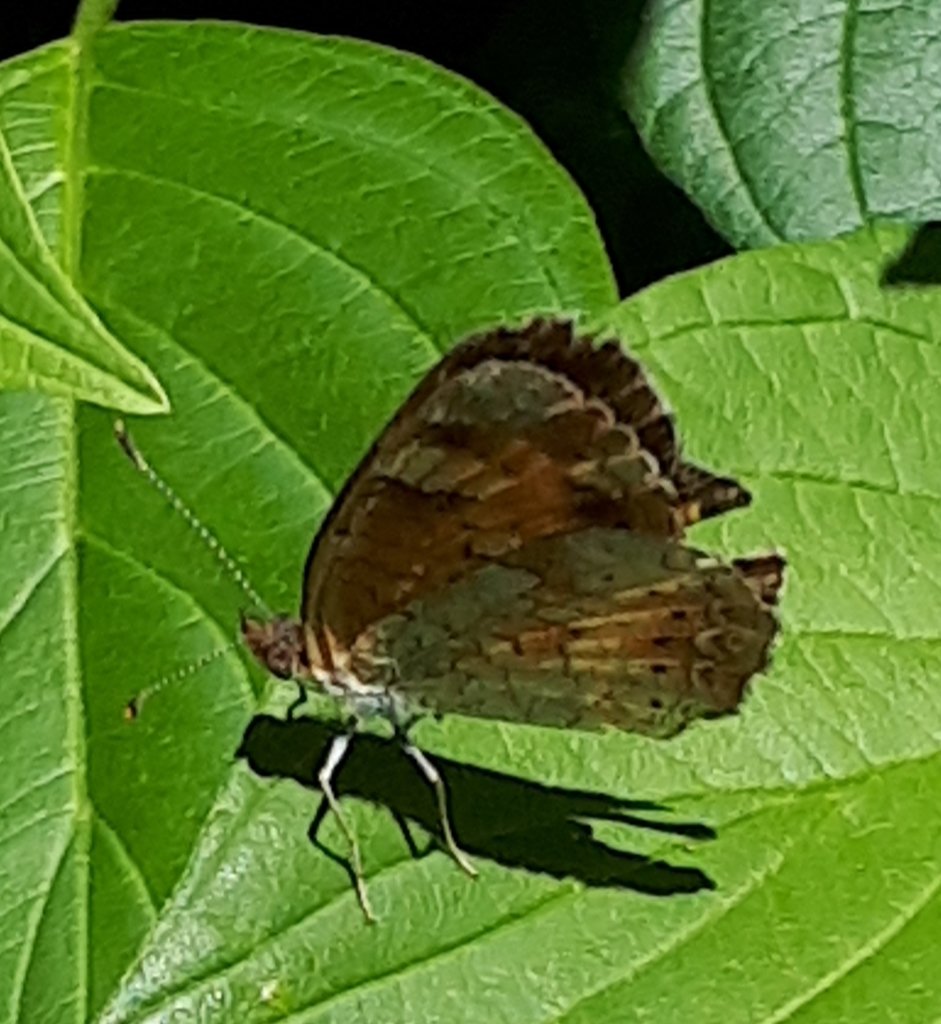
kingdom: Animalia
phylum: Arthropoda
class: Insecta
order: Lepidoptera
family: Nymphalidae
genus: Phyciodes
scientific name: Phyciodes tharos
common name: Northern Crescent
